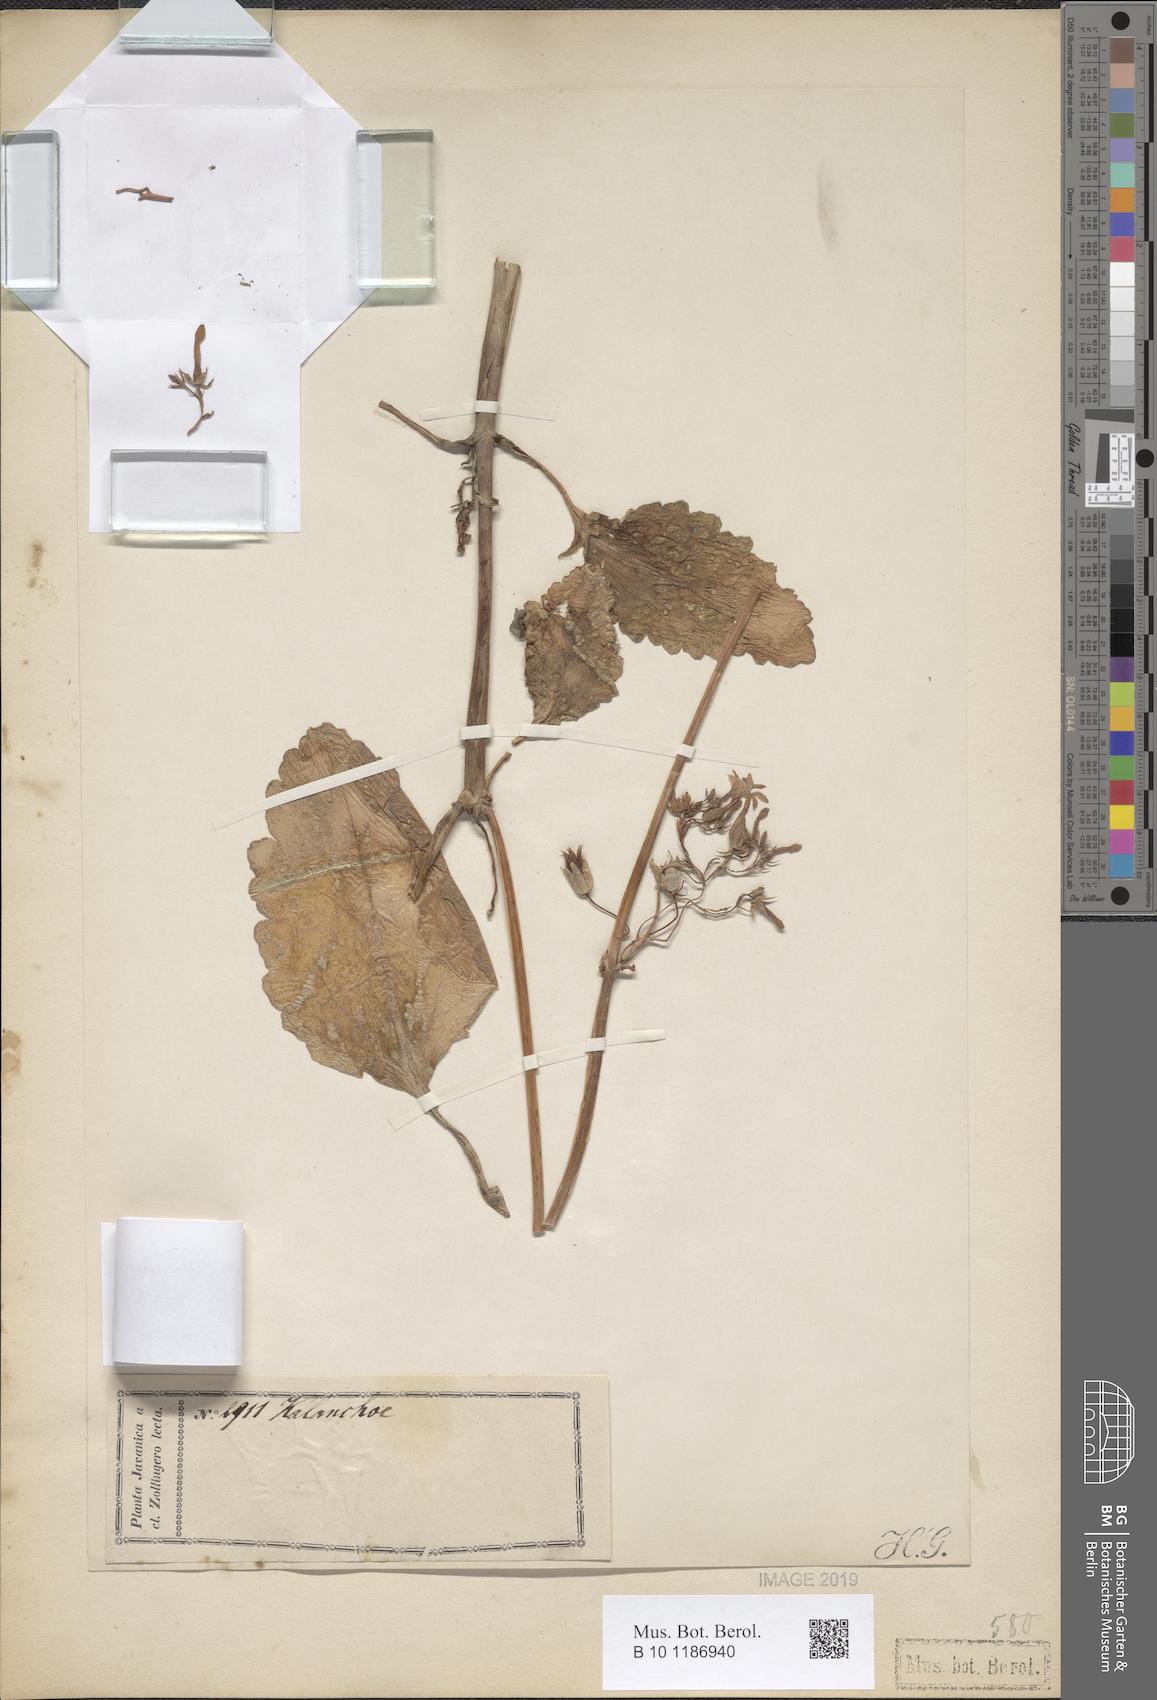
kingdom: Plantae
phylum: Tracheophyta
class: Magnoliopsida
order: Saxifragales
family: Crassulaceae
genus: Kalanchoe
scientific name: Kalanchoe integra
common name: Neverdie
